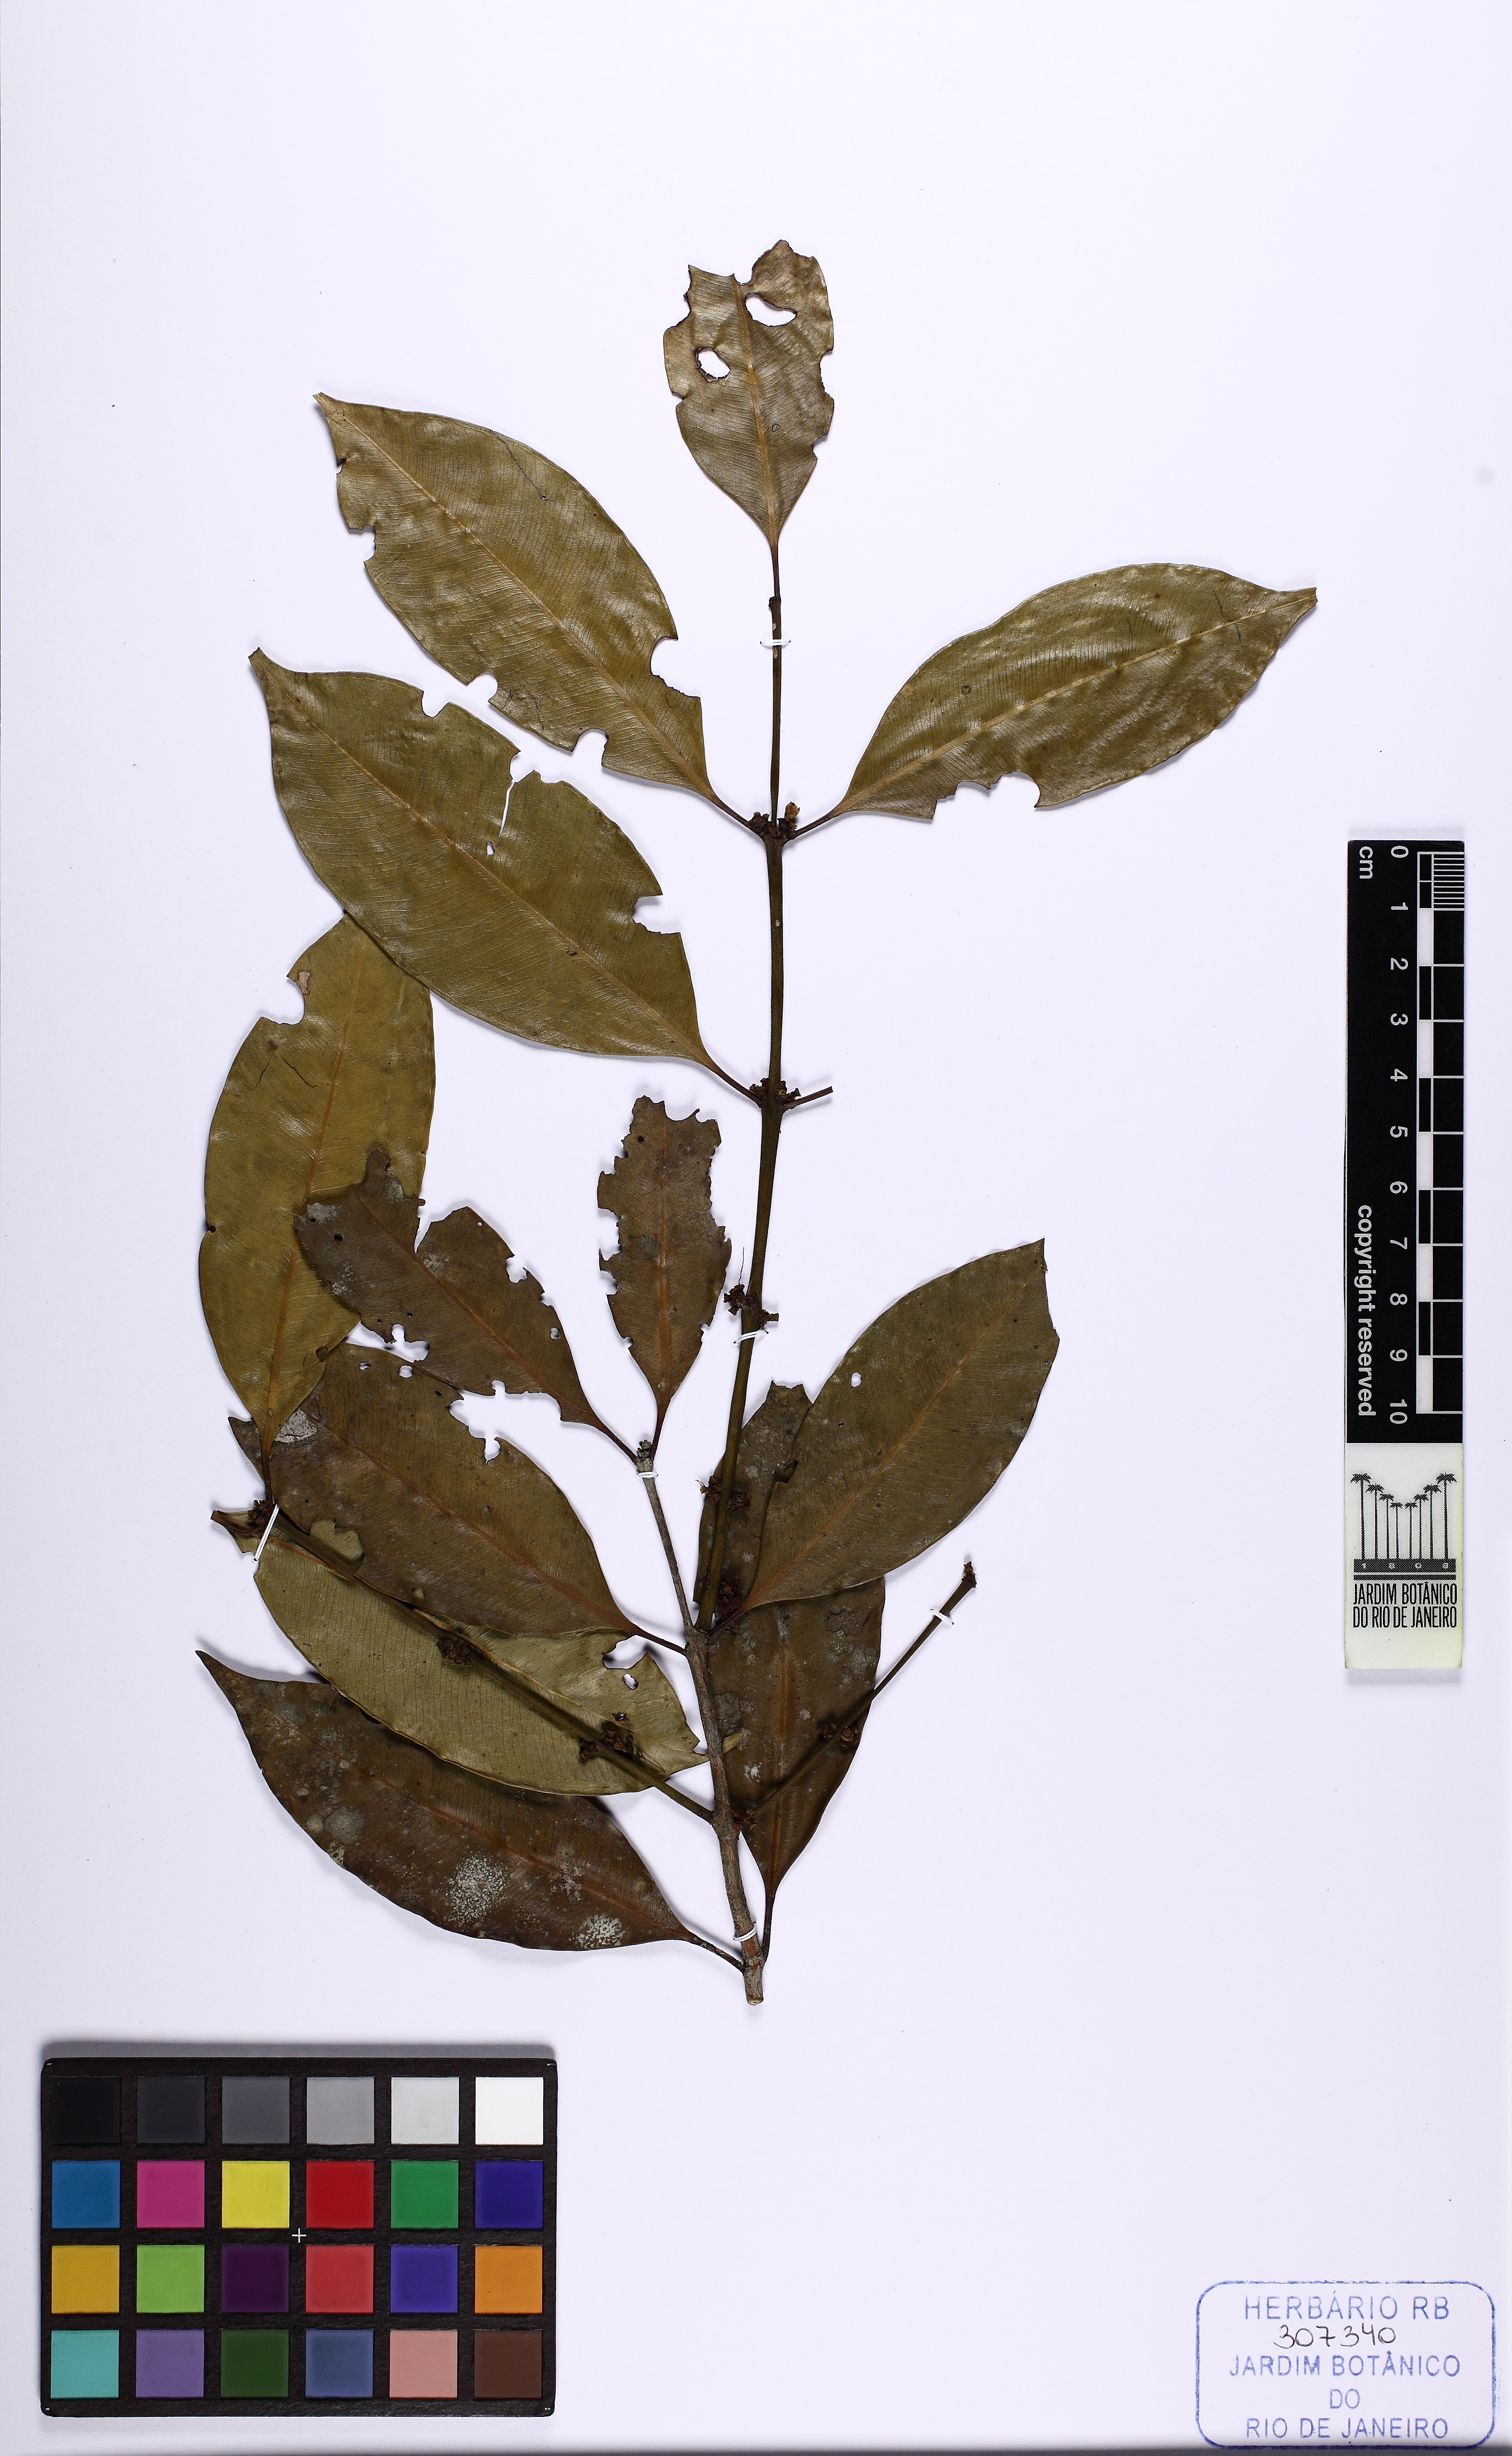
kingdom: Plantae
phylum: Tracheophyta
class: Magnoliopsida
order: Myrtales
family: Myrtaceae
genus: Myrciaria
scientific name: Myrciaria floribunda
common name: Guavaberry
